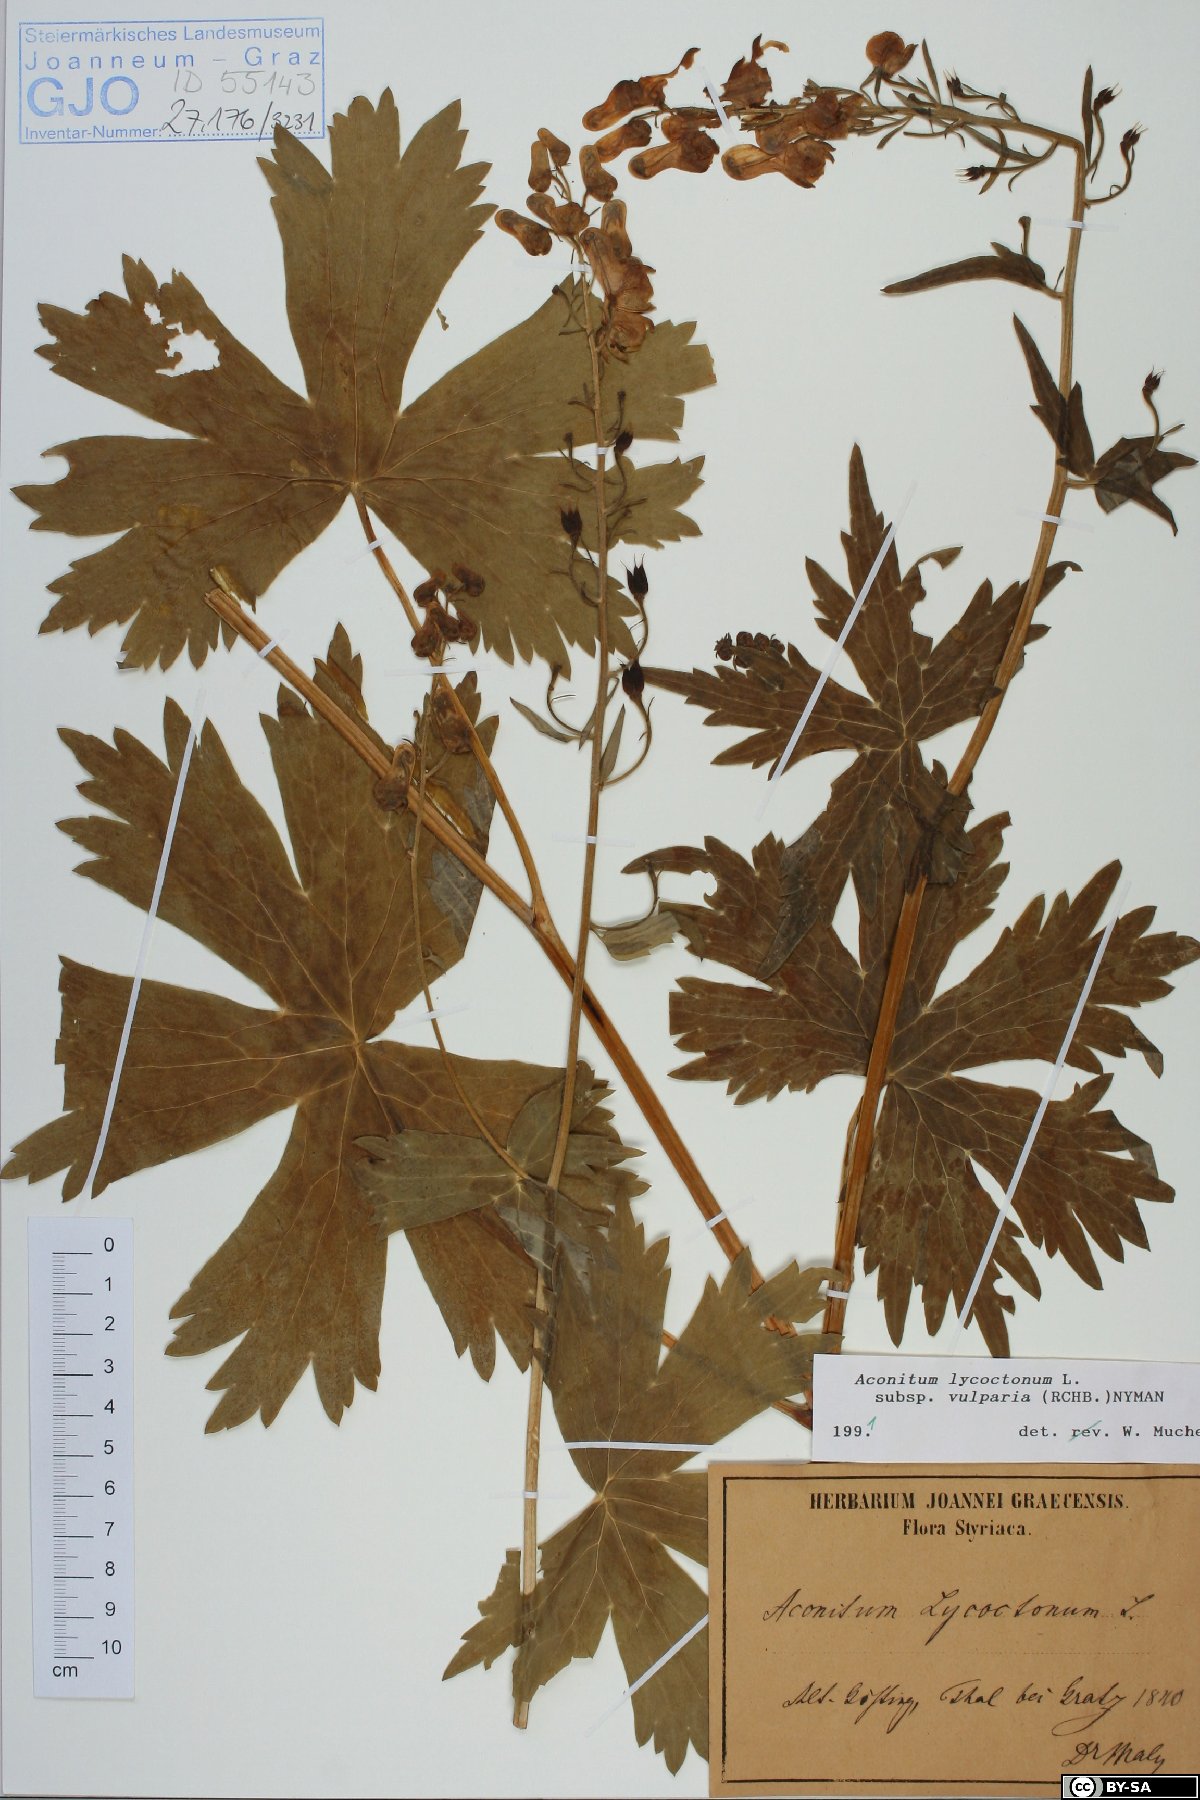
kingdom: Plantae
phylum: Tracheophyta
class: Magnoliopsida
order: Ranunculales
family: Ranunculaceae
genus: Aconitum
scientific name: Aconitum lycoctonum
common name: Wolf's-bane
